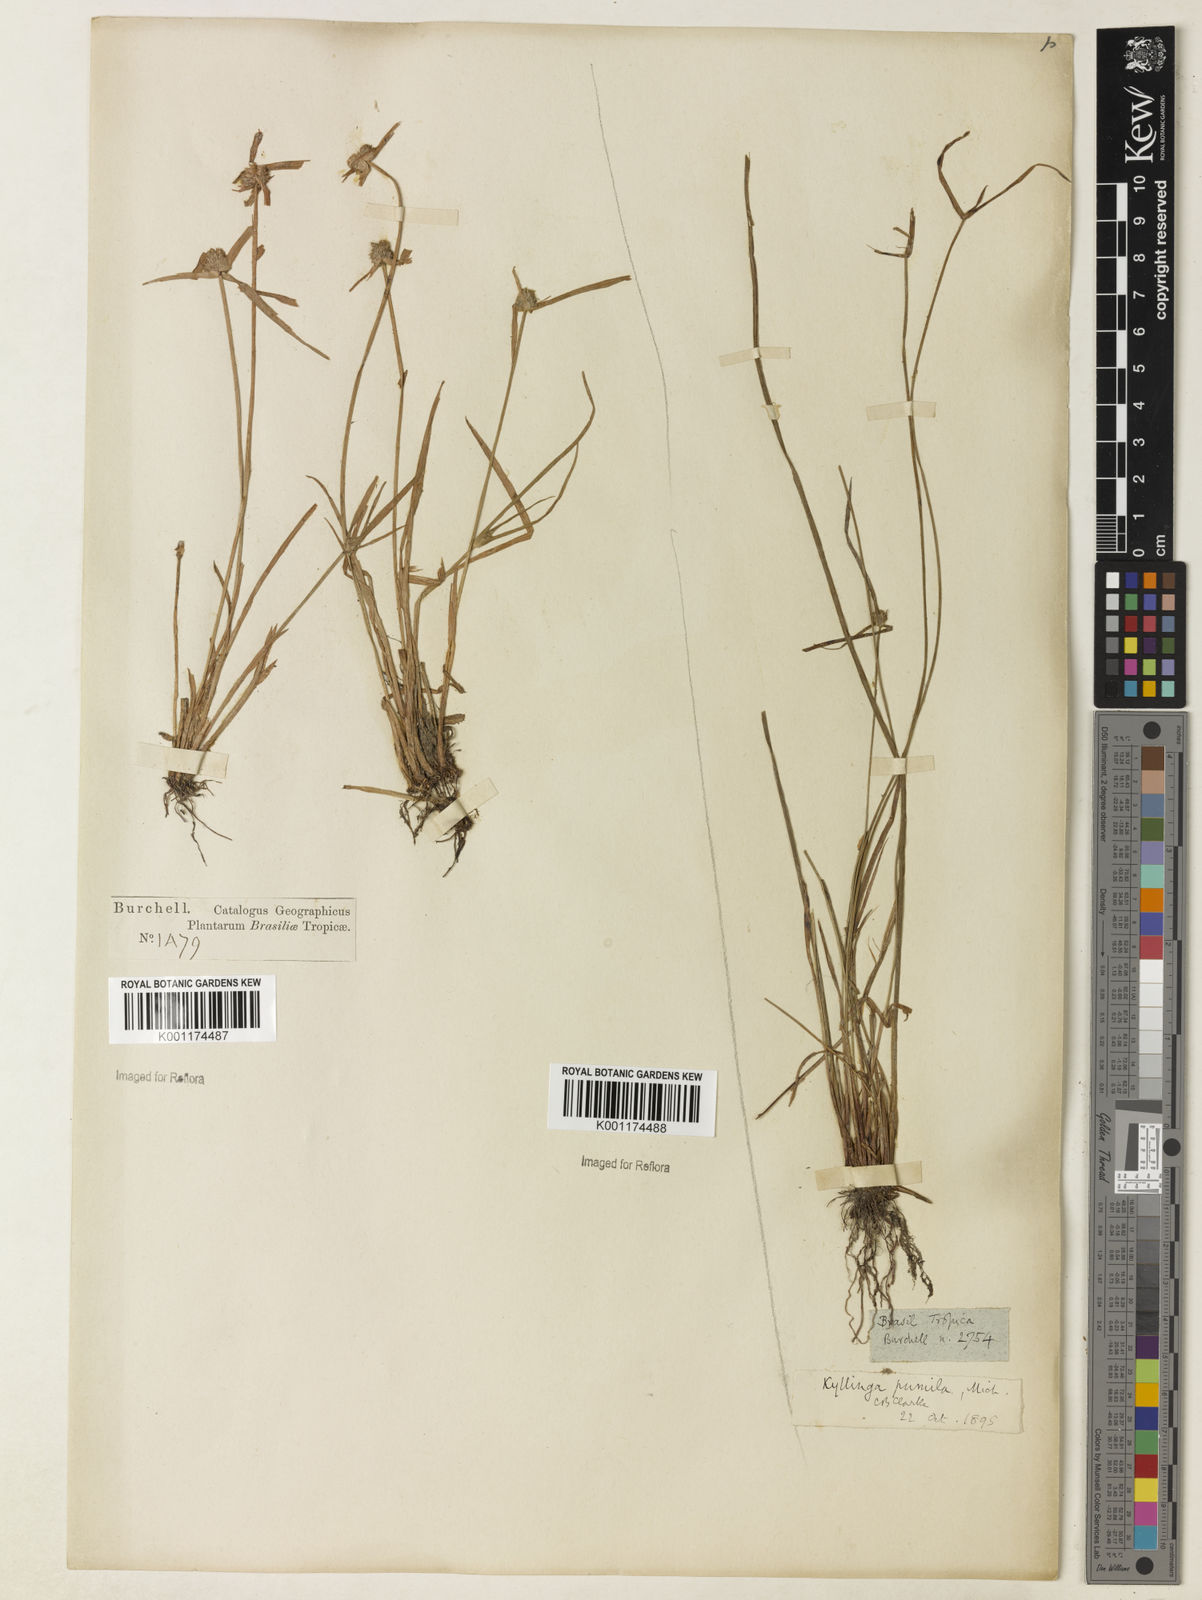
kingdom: Plantae
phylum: Tracheophyta
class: Liliopsida
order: Poales
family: Cyperaceae
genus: Cyperus
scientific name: Cyperus
